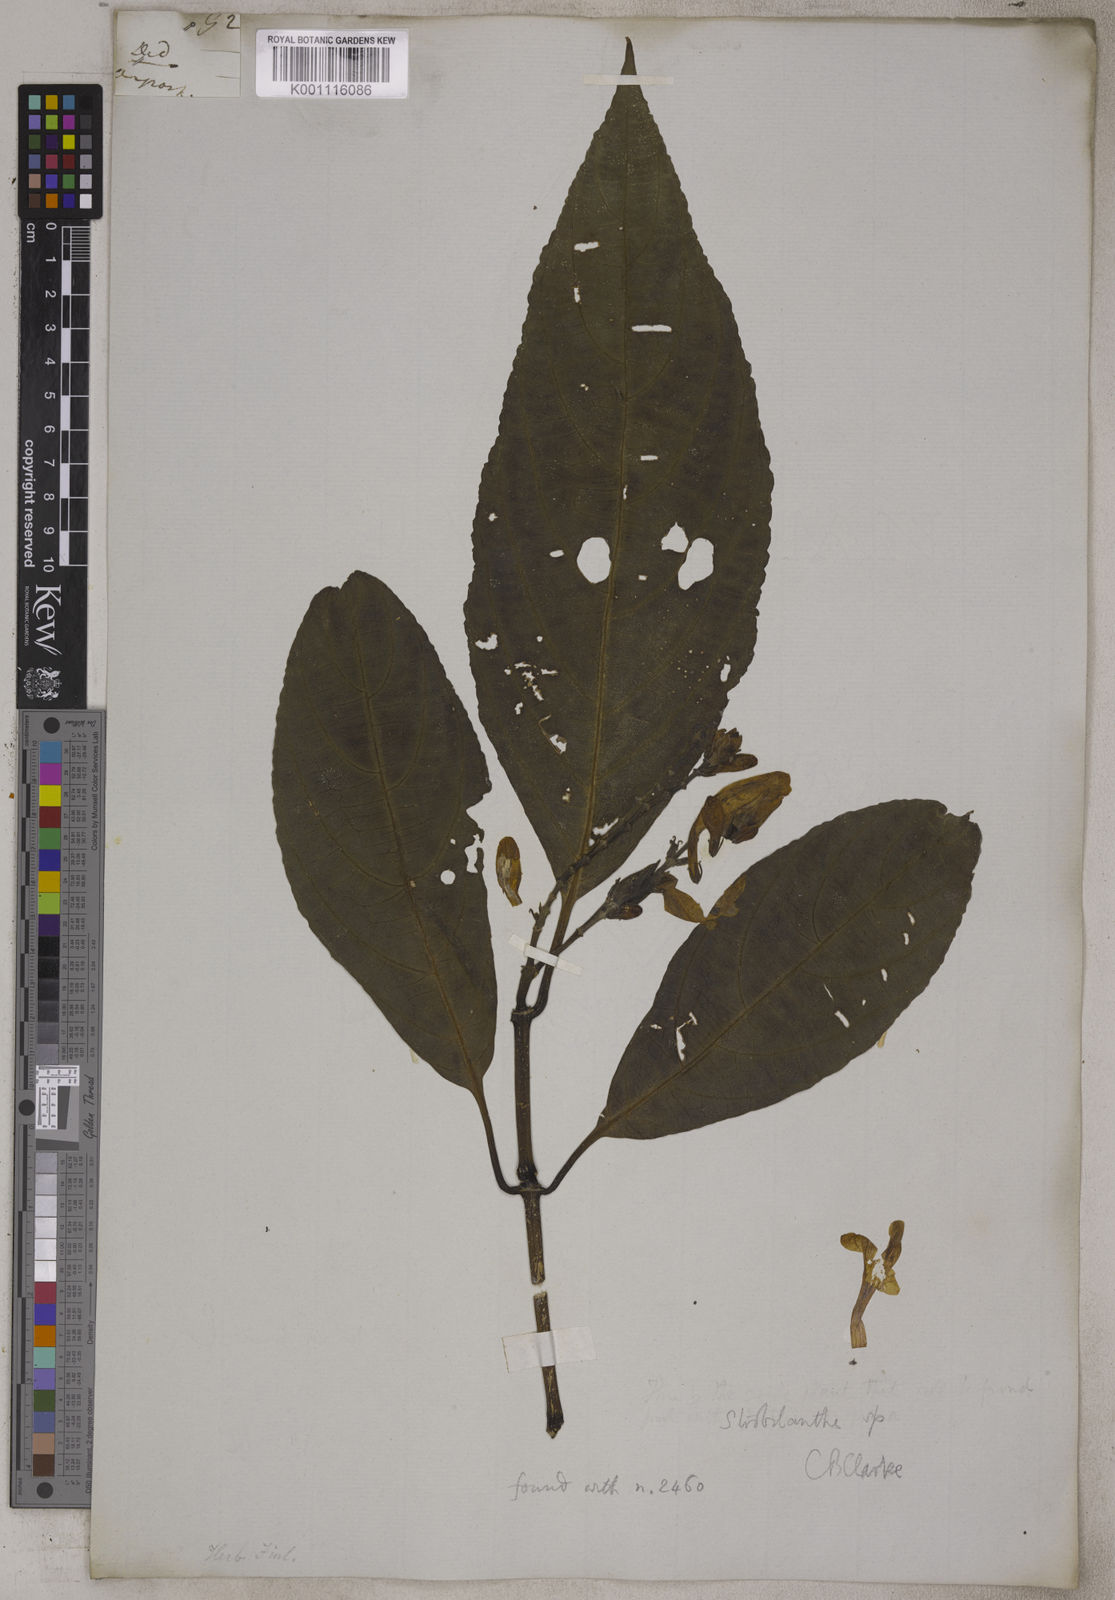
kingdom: Plantae
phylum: Tracheophyta
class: Magnoliopsida
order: Lamiales
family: Acanthaceae
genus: Barleria
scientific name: Barleria conspicua
